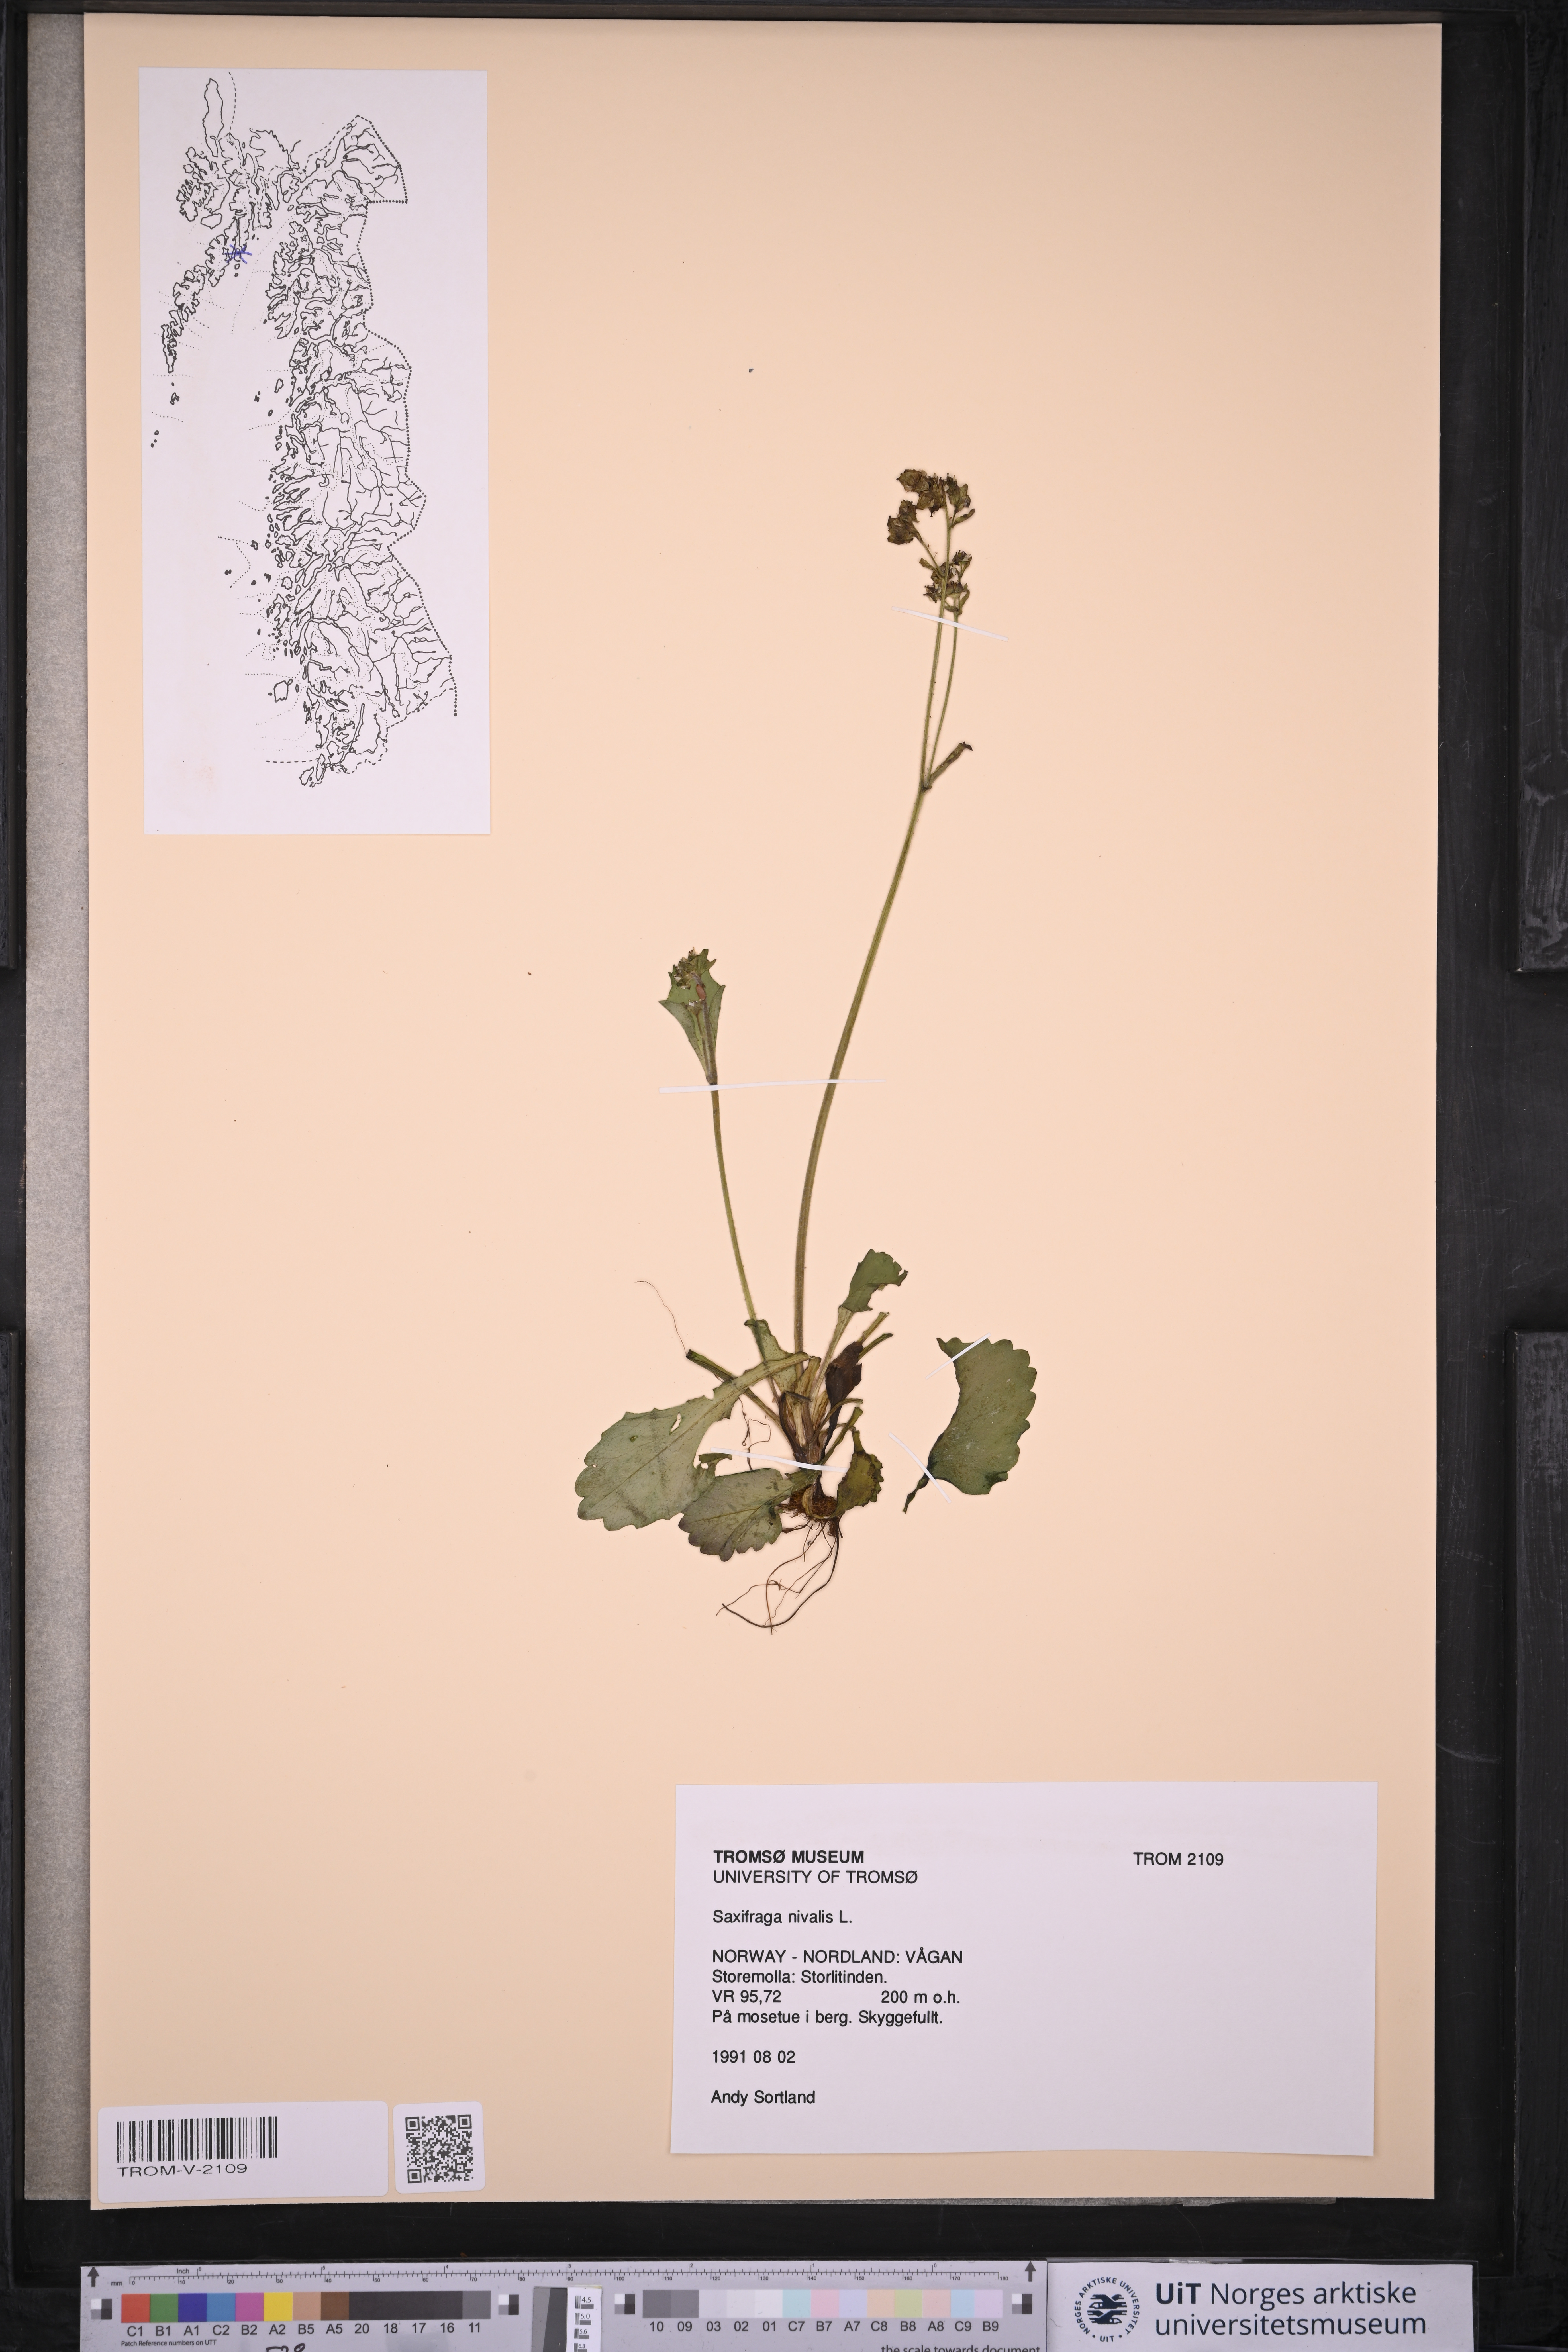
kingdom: Plantae
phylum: Tracheophyta
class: Magnoliopsida
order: Saxifragales
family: Saxifragaceae
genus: Micranthes
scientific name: Micranthes nivalis
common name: Alpine saxifrage
